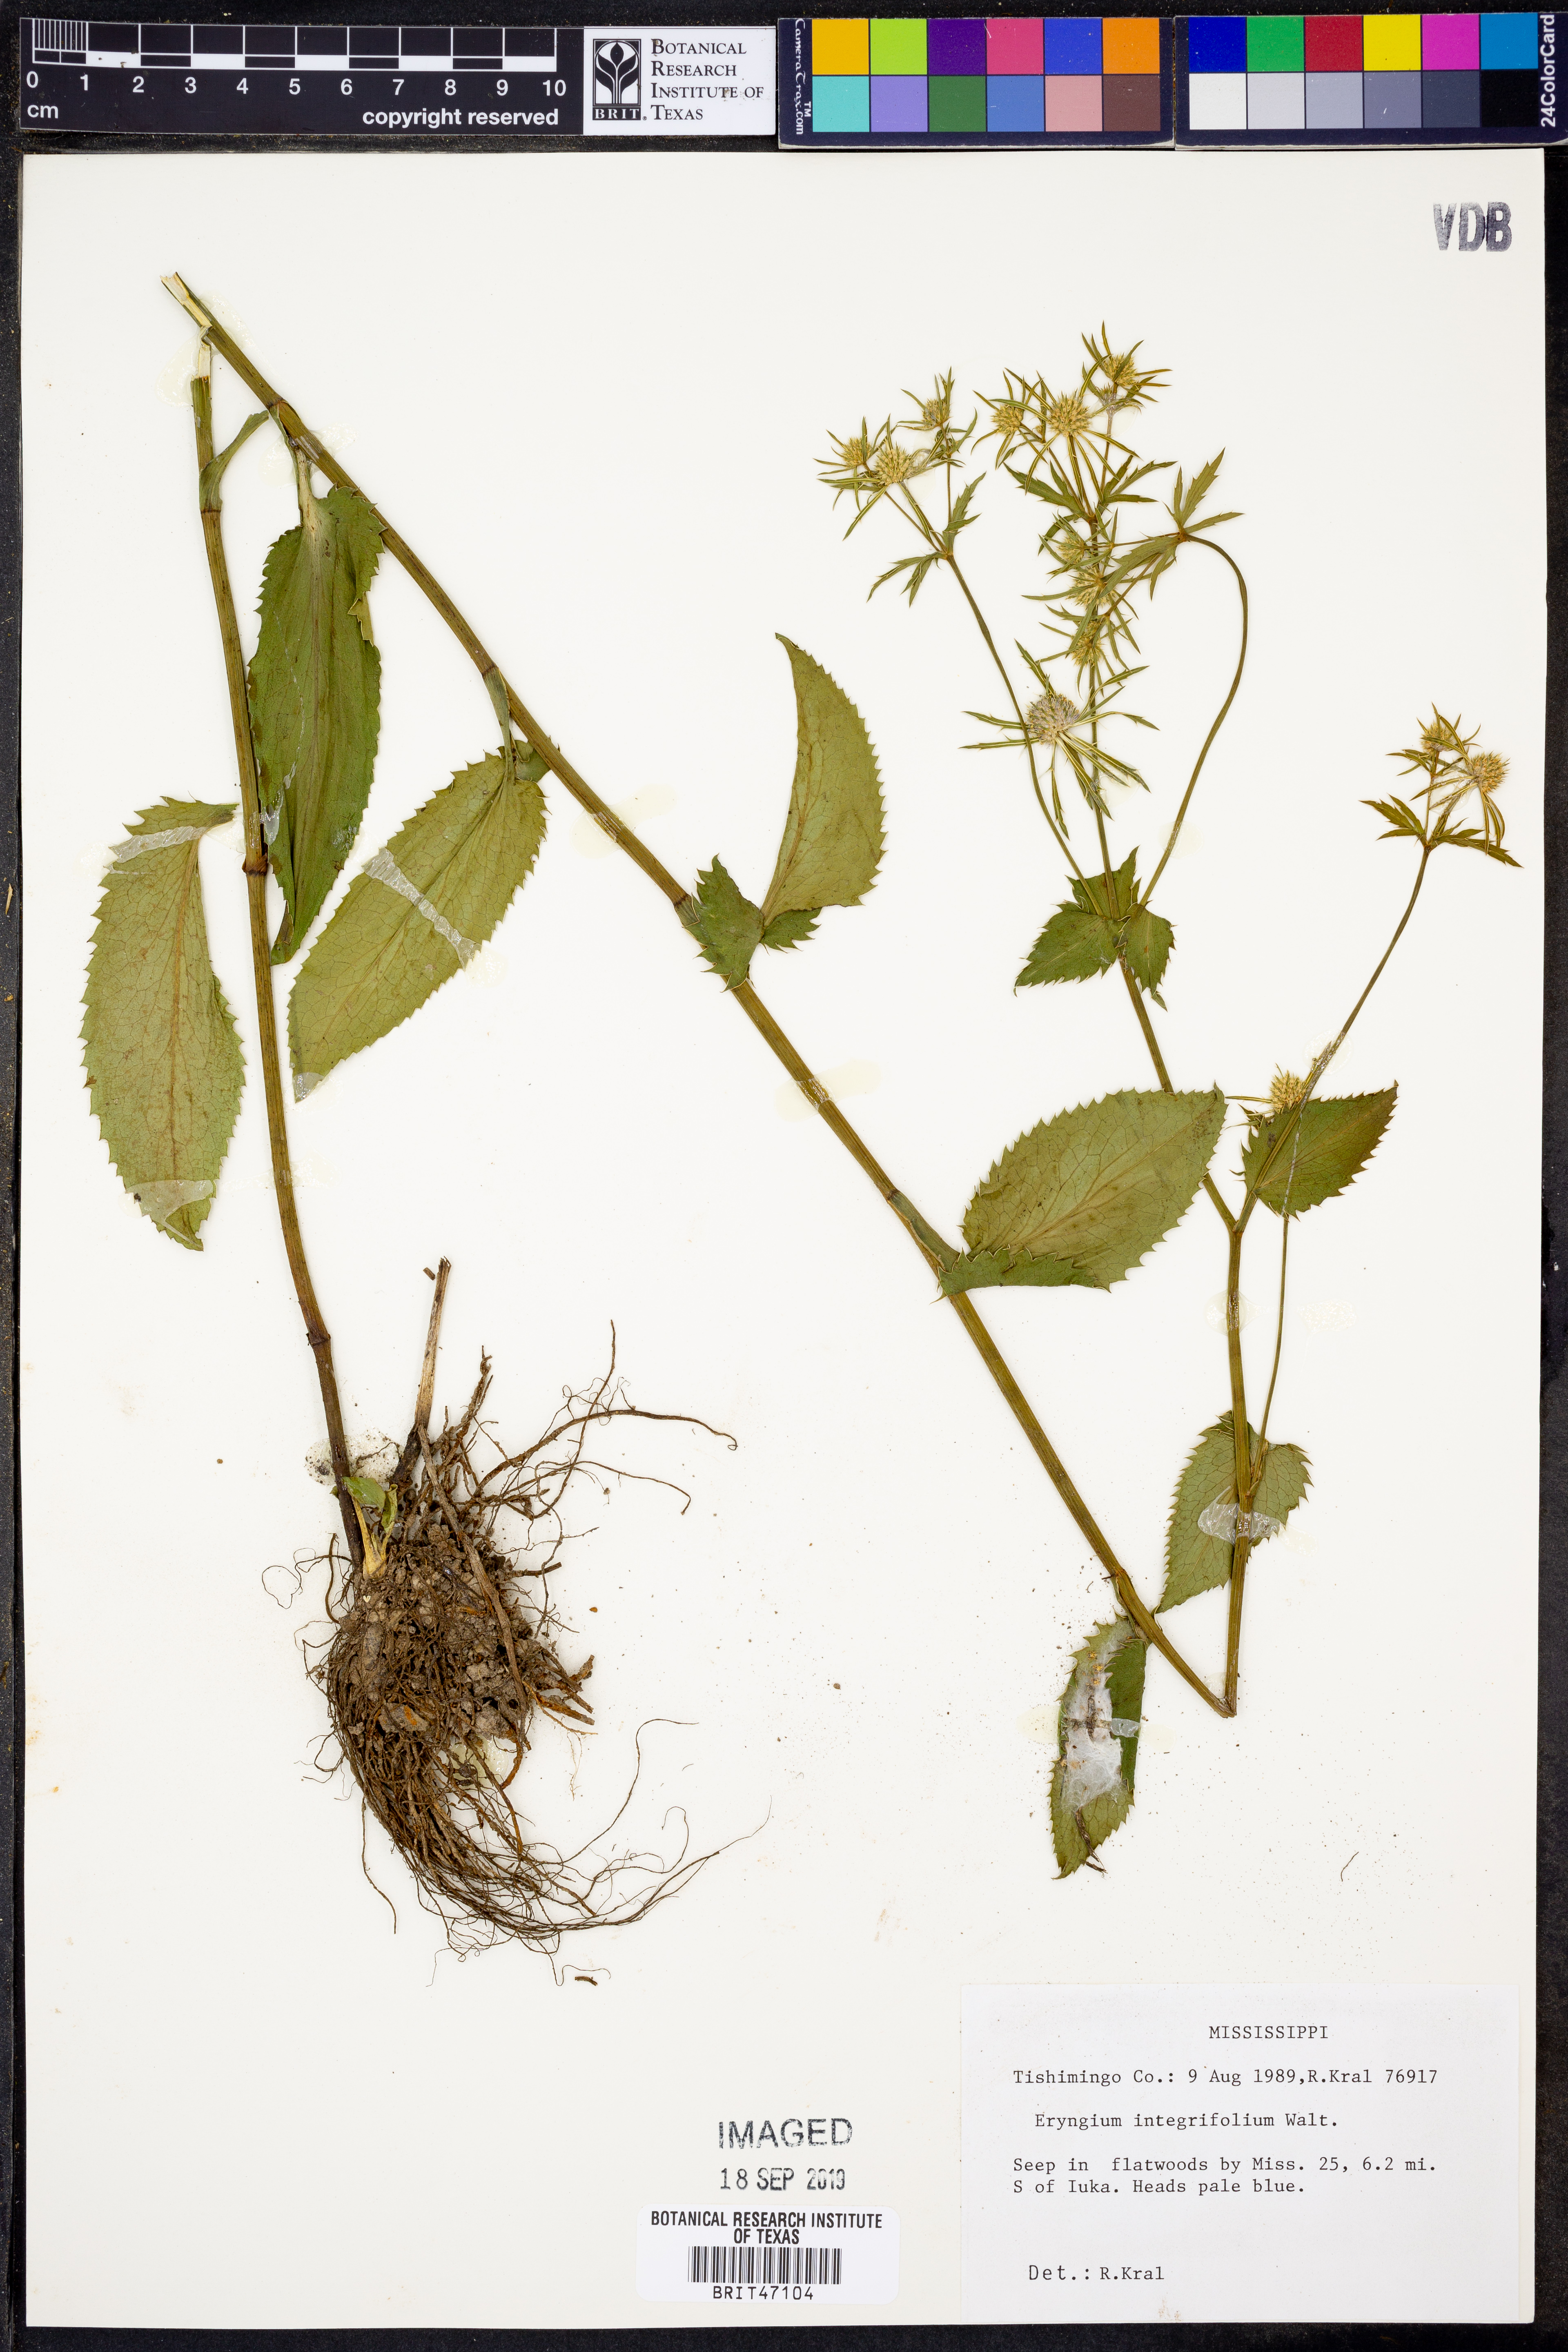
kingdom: Plantae
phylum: Tracheophyta
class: Magnoliopsida
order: Apiales
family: Apiaceae
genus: Eryngium
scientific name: Eryngium integrifolium
